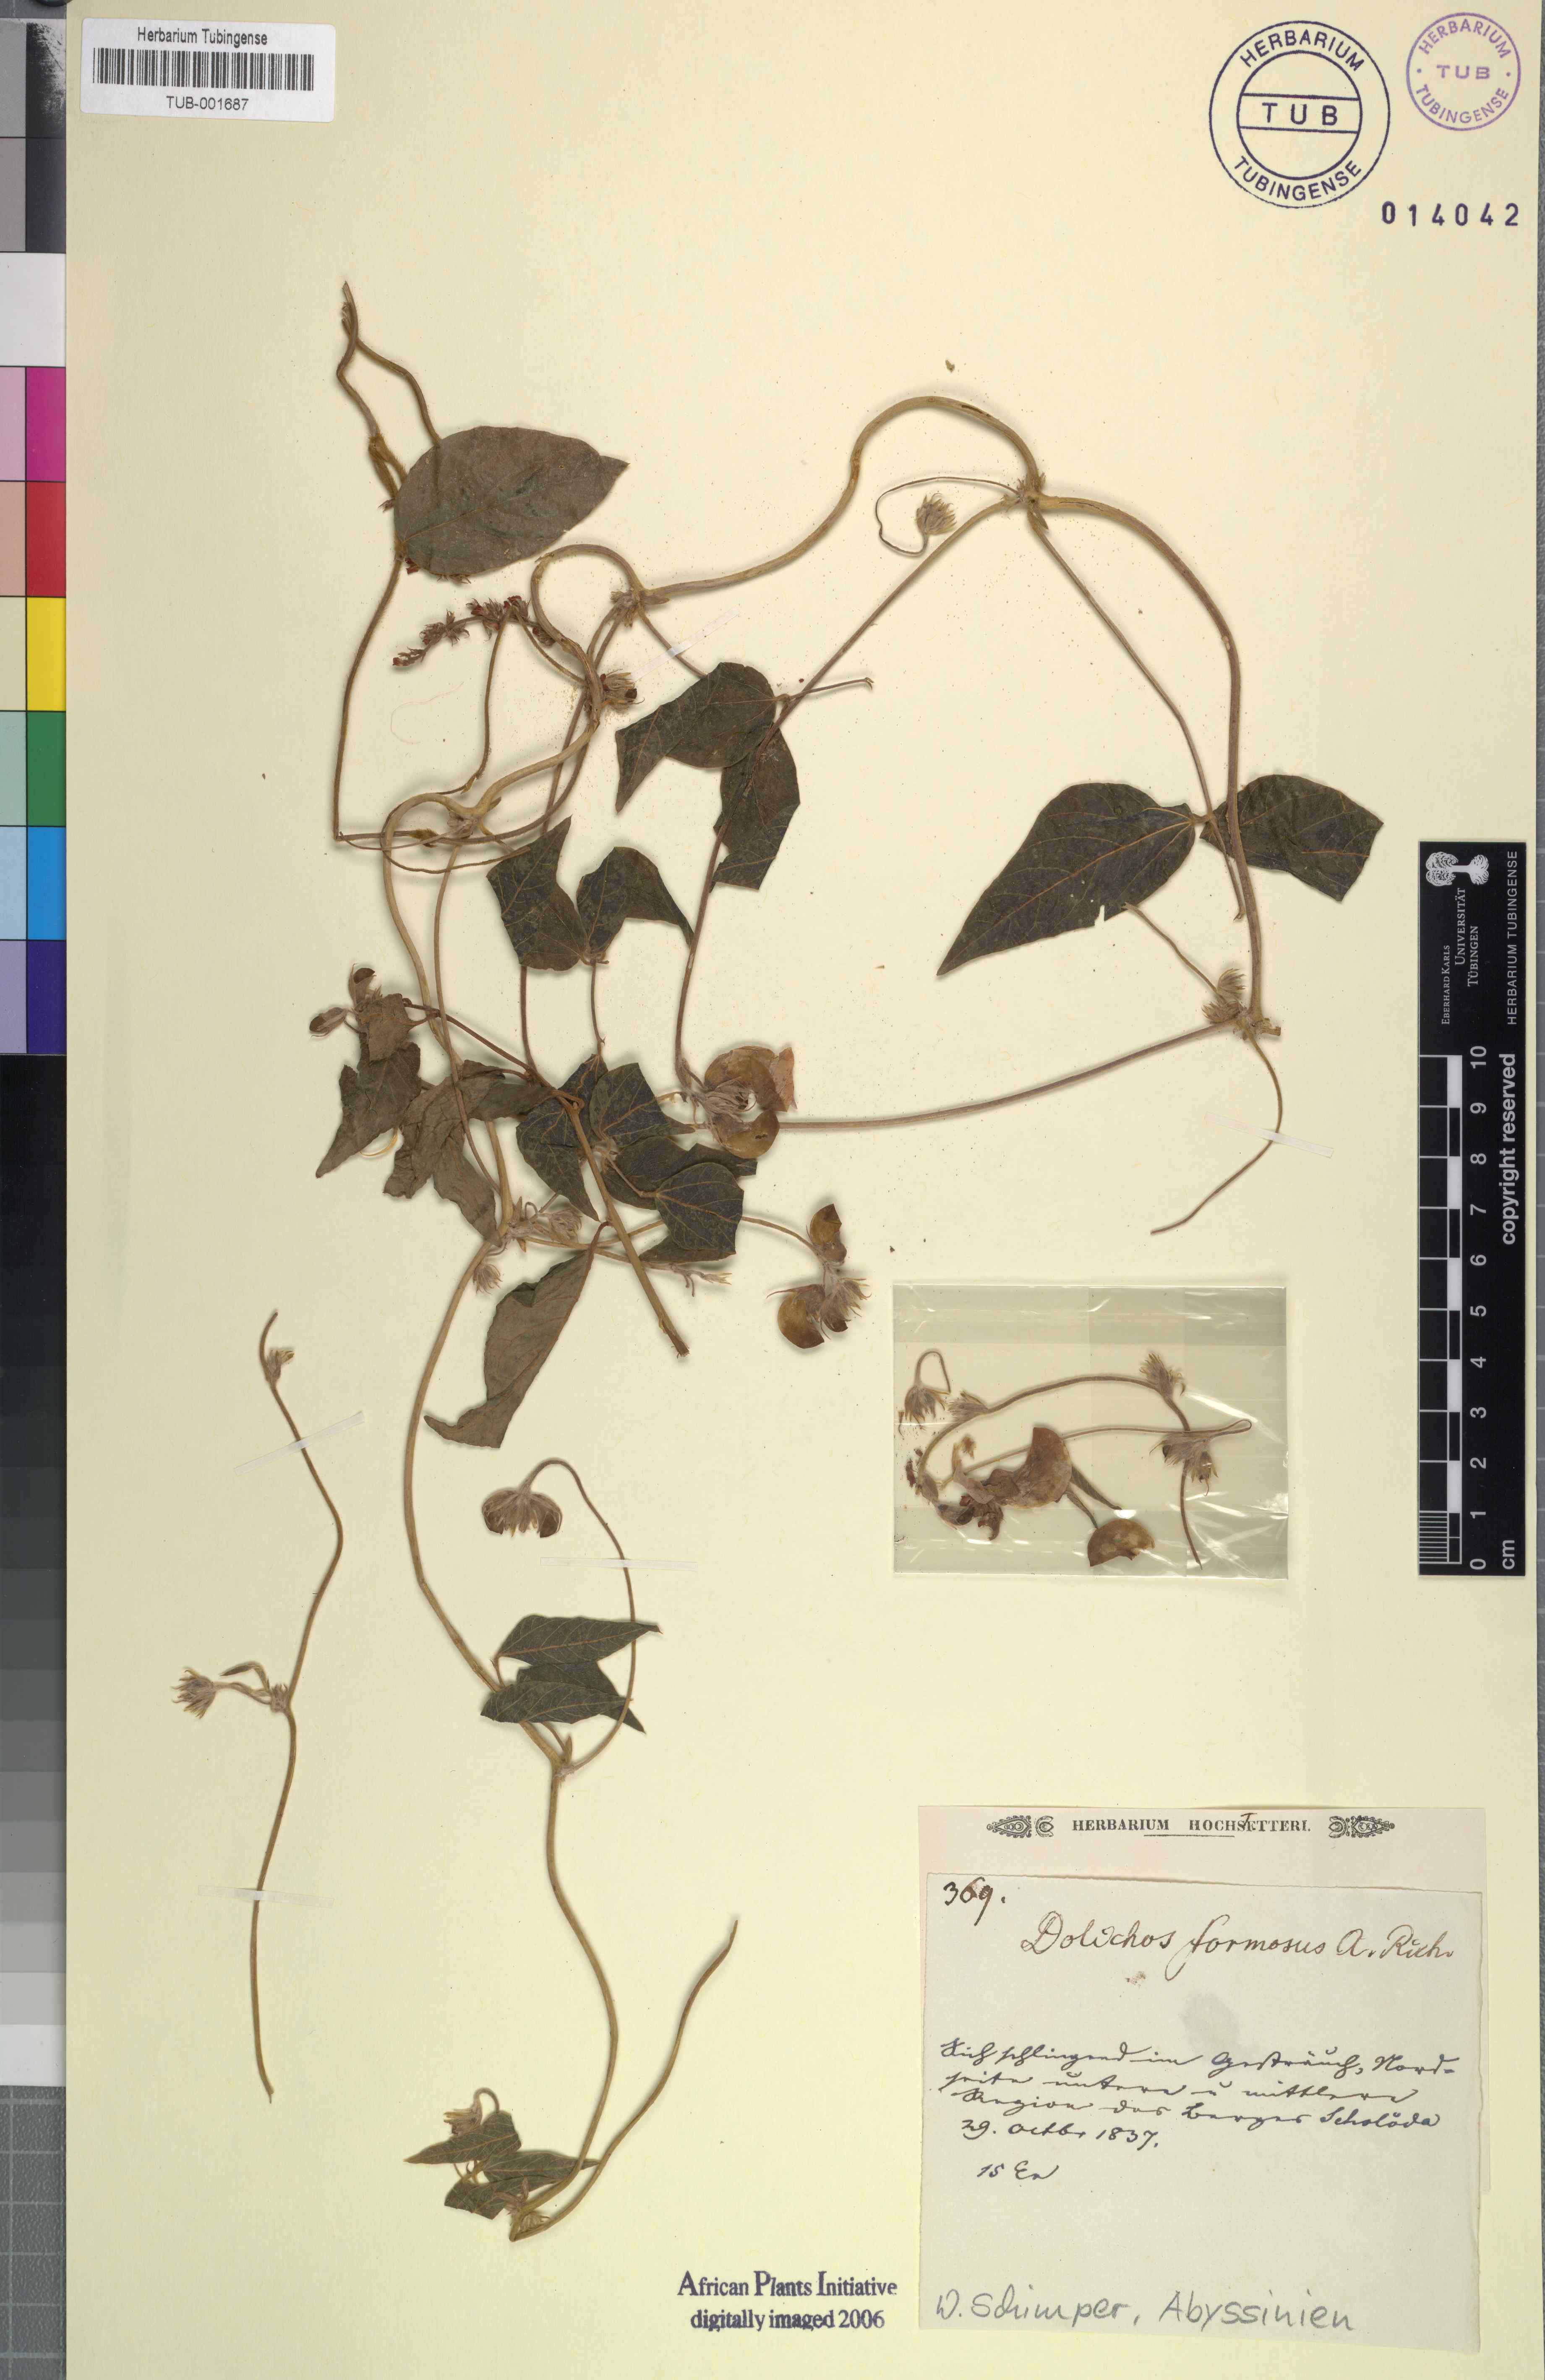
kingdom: Plantae
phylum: Tracheophyta
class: Magnoliopsida
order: Fabales
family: Fabaceae
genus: Dolichos
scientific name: Dolichos sericeus
